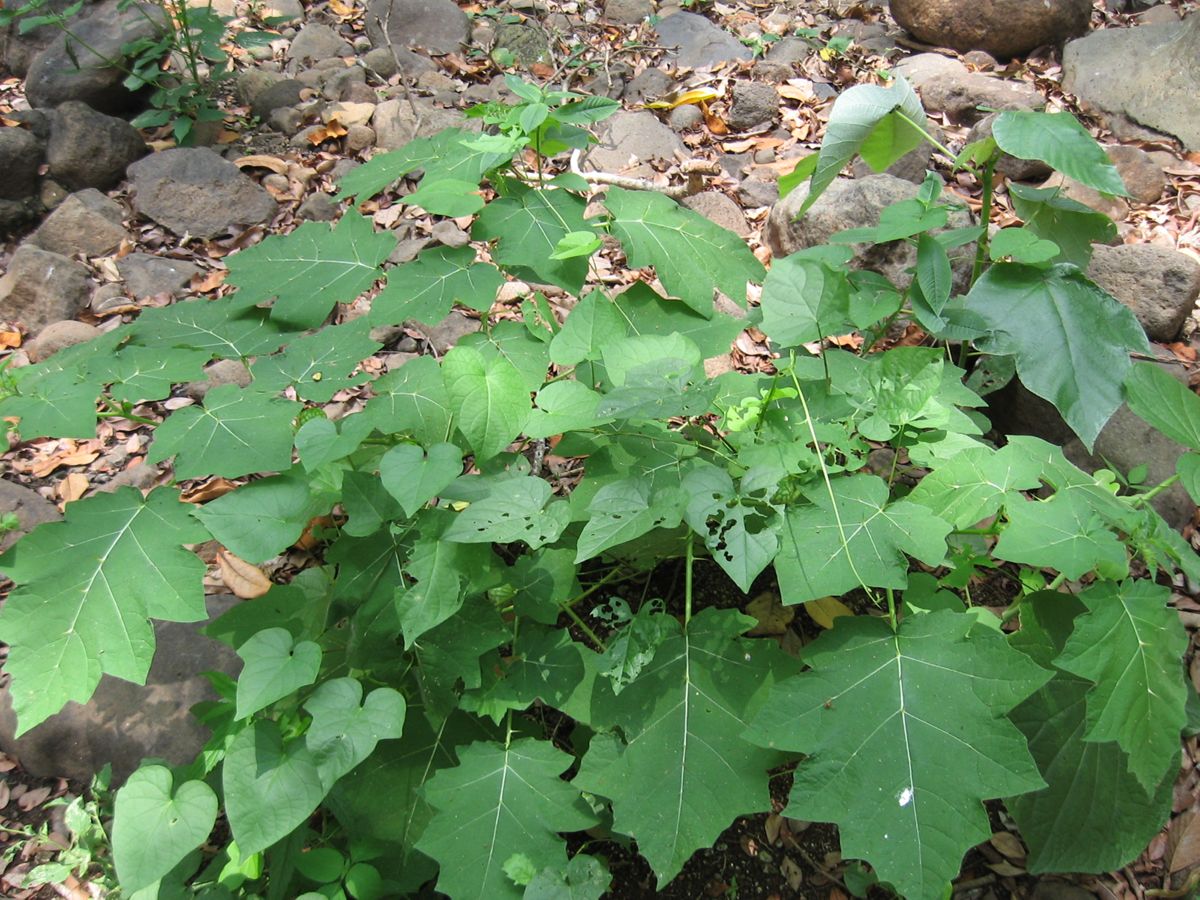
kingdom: Plantae
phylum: Tracheophyta
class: Magnoliopsida
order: Solanales
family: Solanaceae
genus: Solanum
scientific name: Solanum myriacanthum
